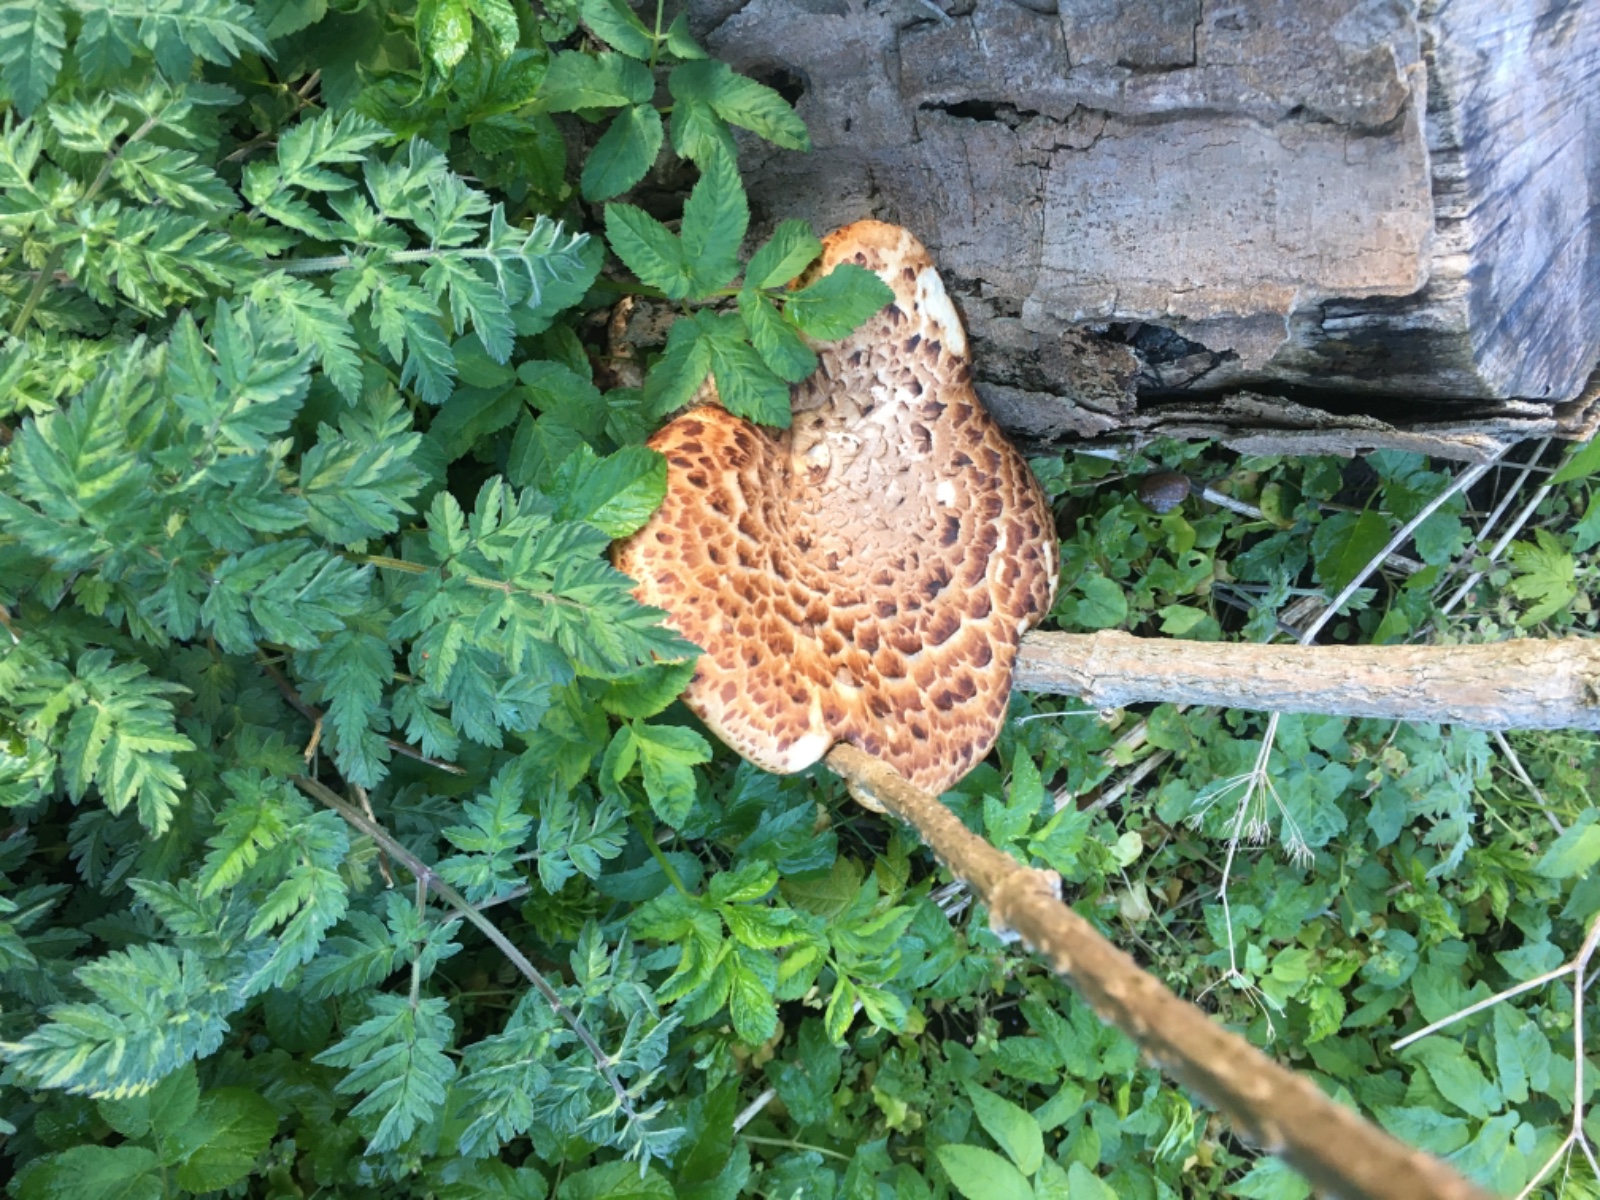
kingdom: Fungi
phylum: Basidiomycota
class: Agaricomycetes
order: Polyporales
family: Polyporaceae
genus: Cerioporus
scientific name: Cerioporus squamosus
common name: skællet stilkporesvamp
